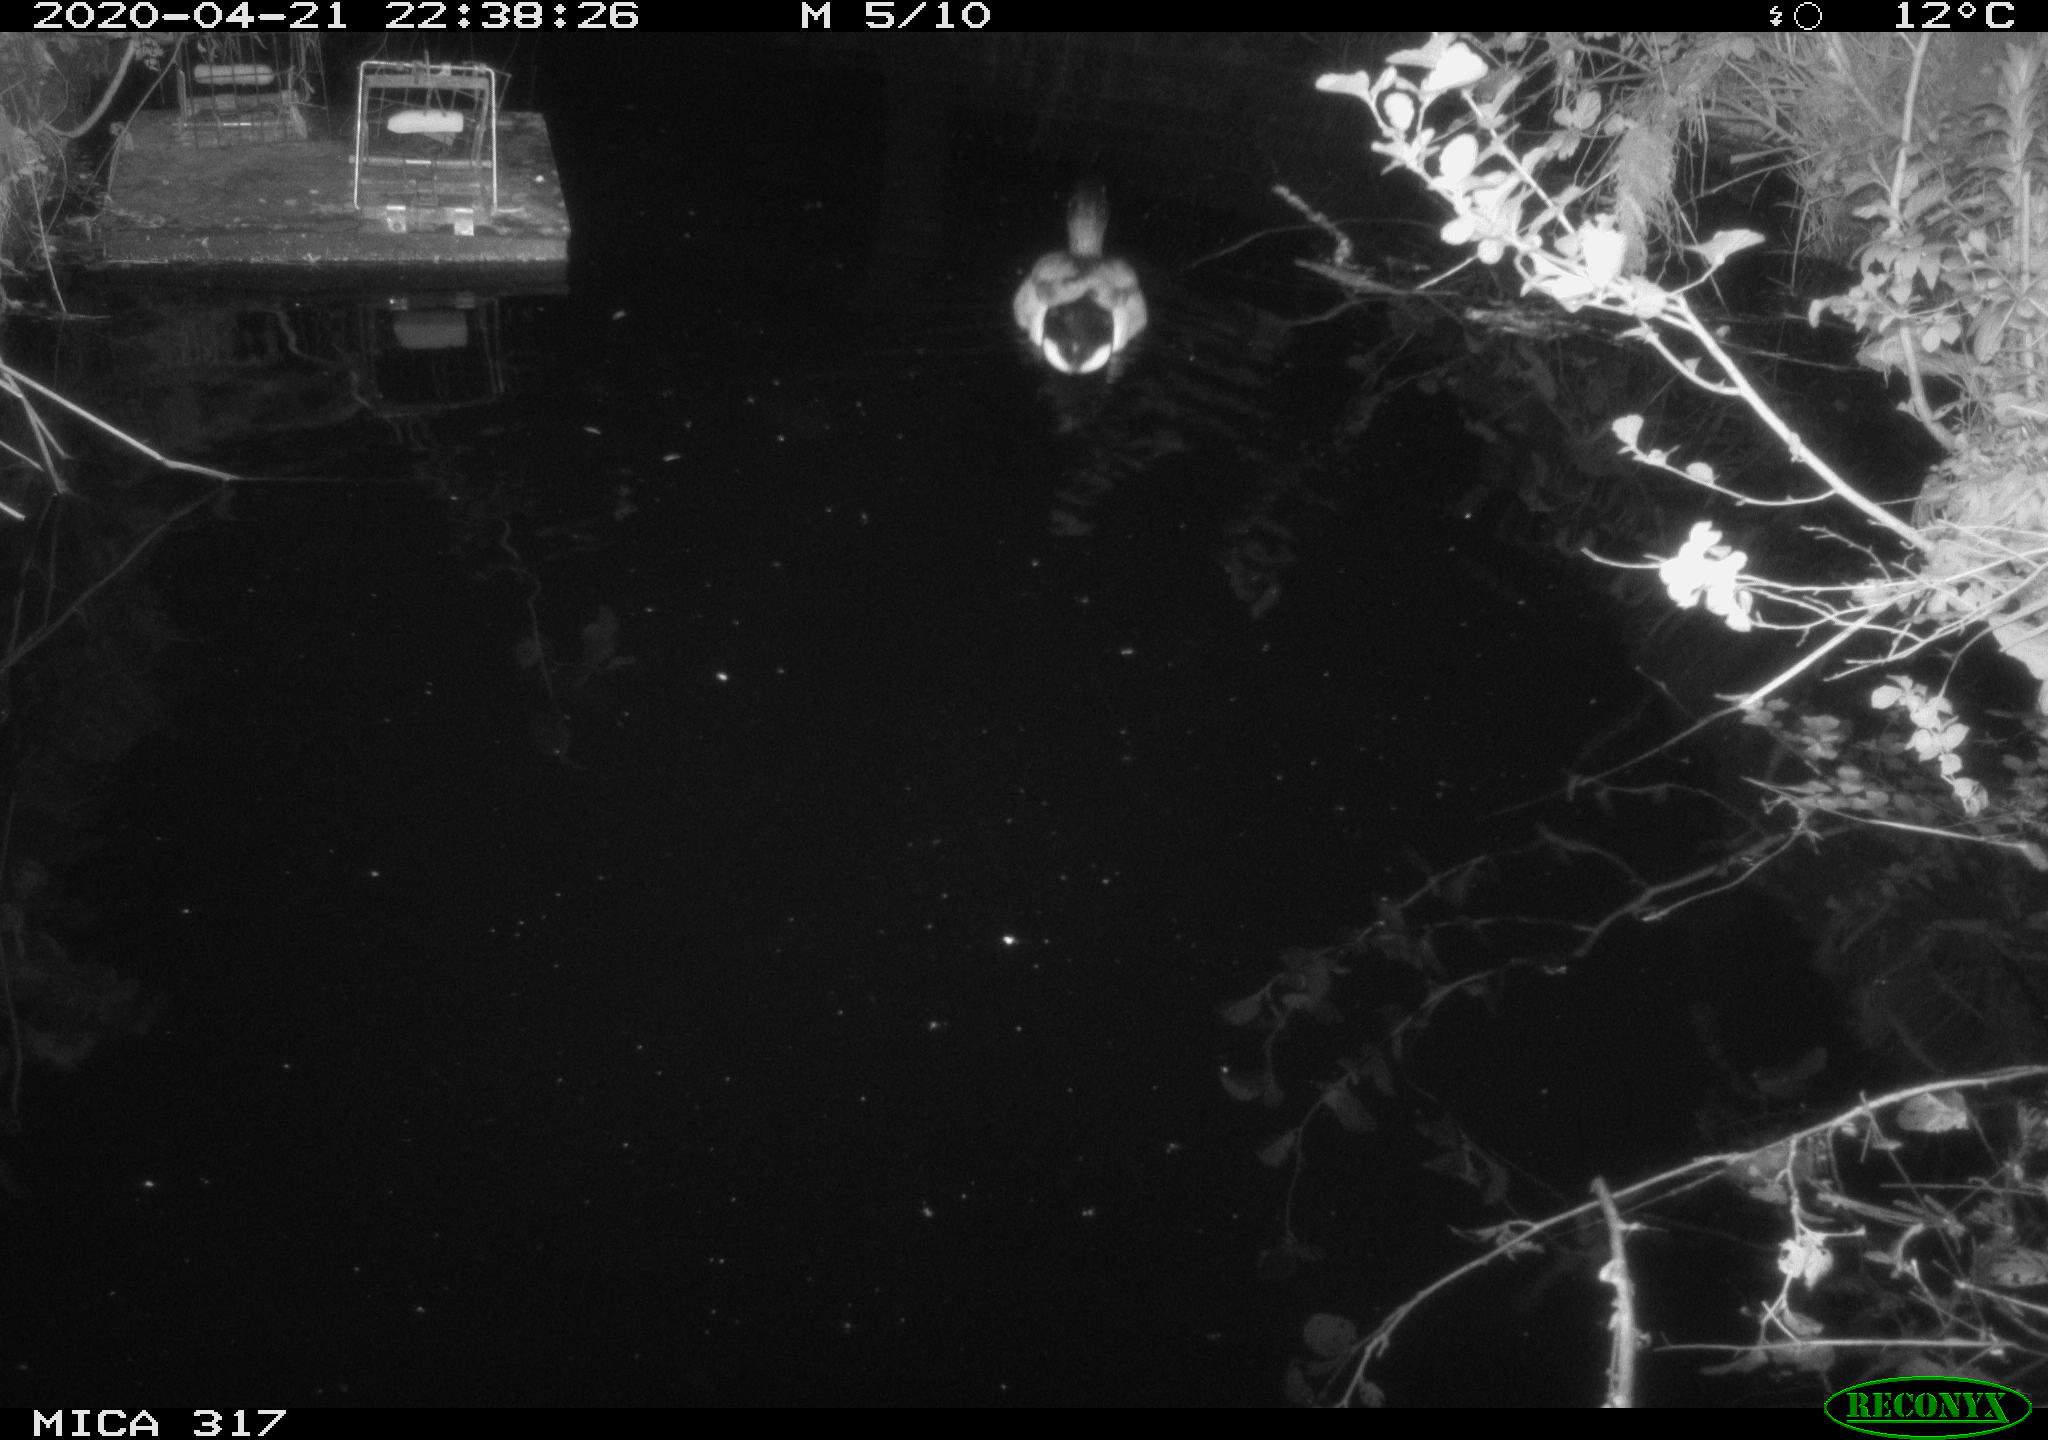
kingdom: Animalia
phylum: Chordata
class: Aves
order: Anseriformes
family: Anatidae
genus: Anas
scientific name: Anas platyrhynchos
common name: Mallard
